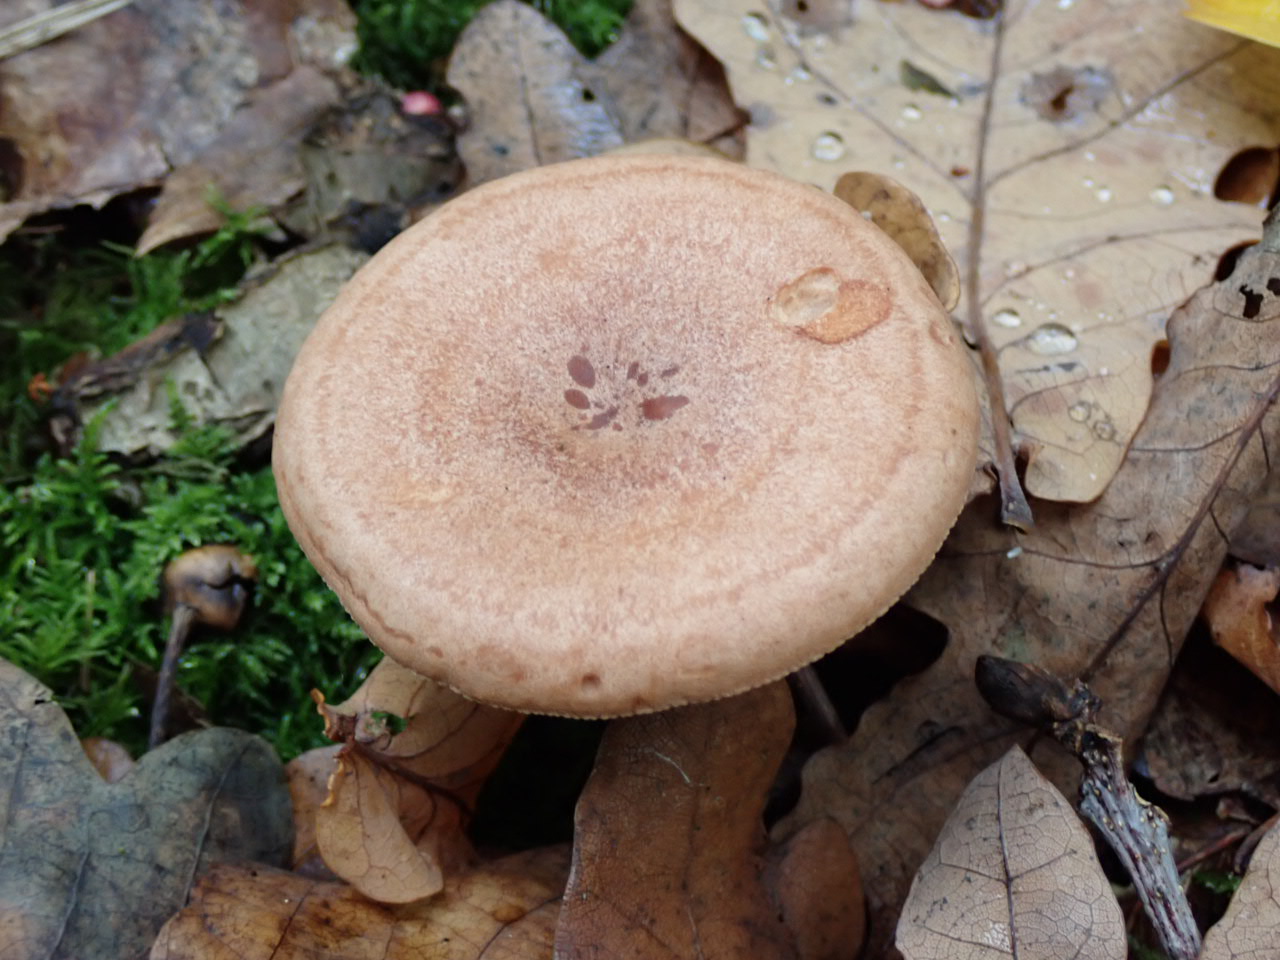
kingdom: Fungi
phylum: Basidiomycota
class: Agaricomycetes
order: Russulales
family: Russulaceae
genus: Lactarius
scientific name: Lactarius quietus
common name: ege-mælkehat
